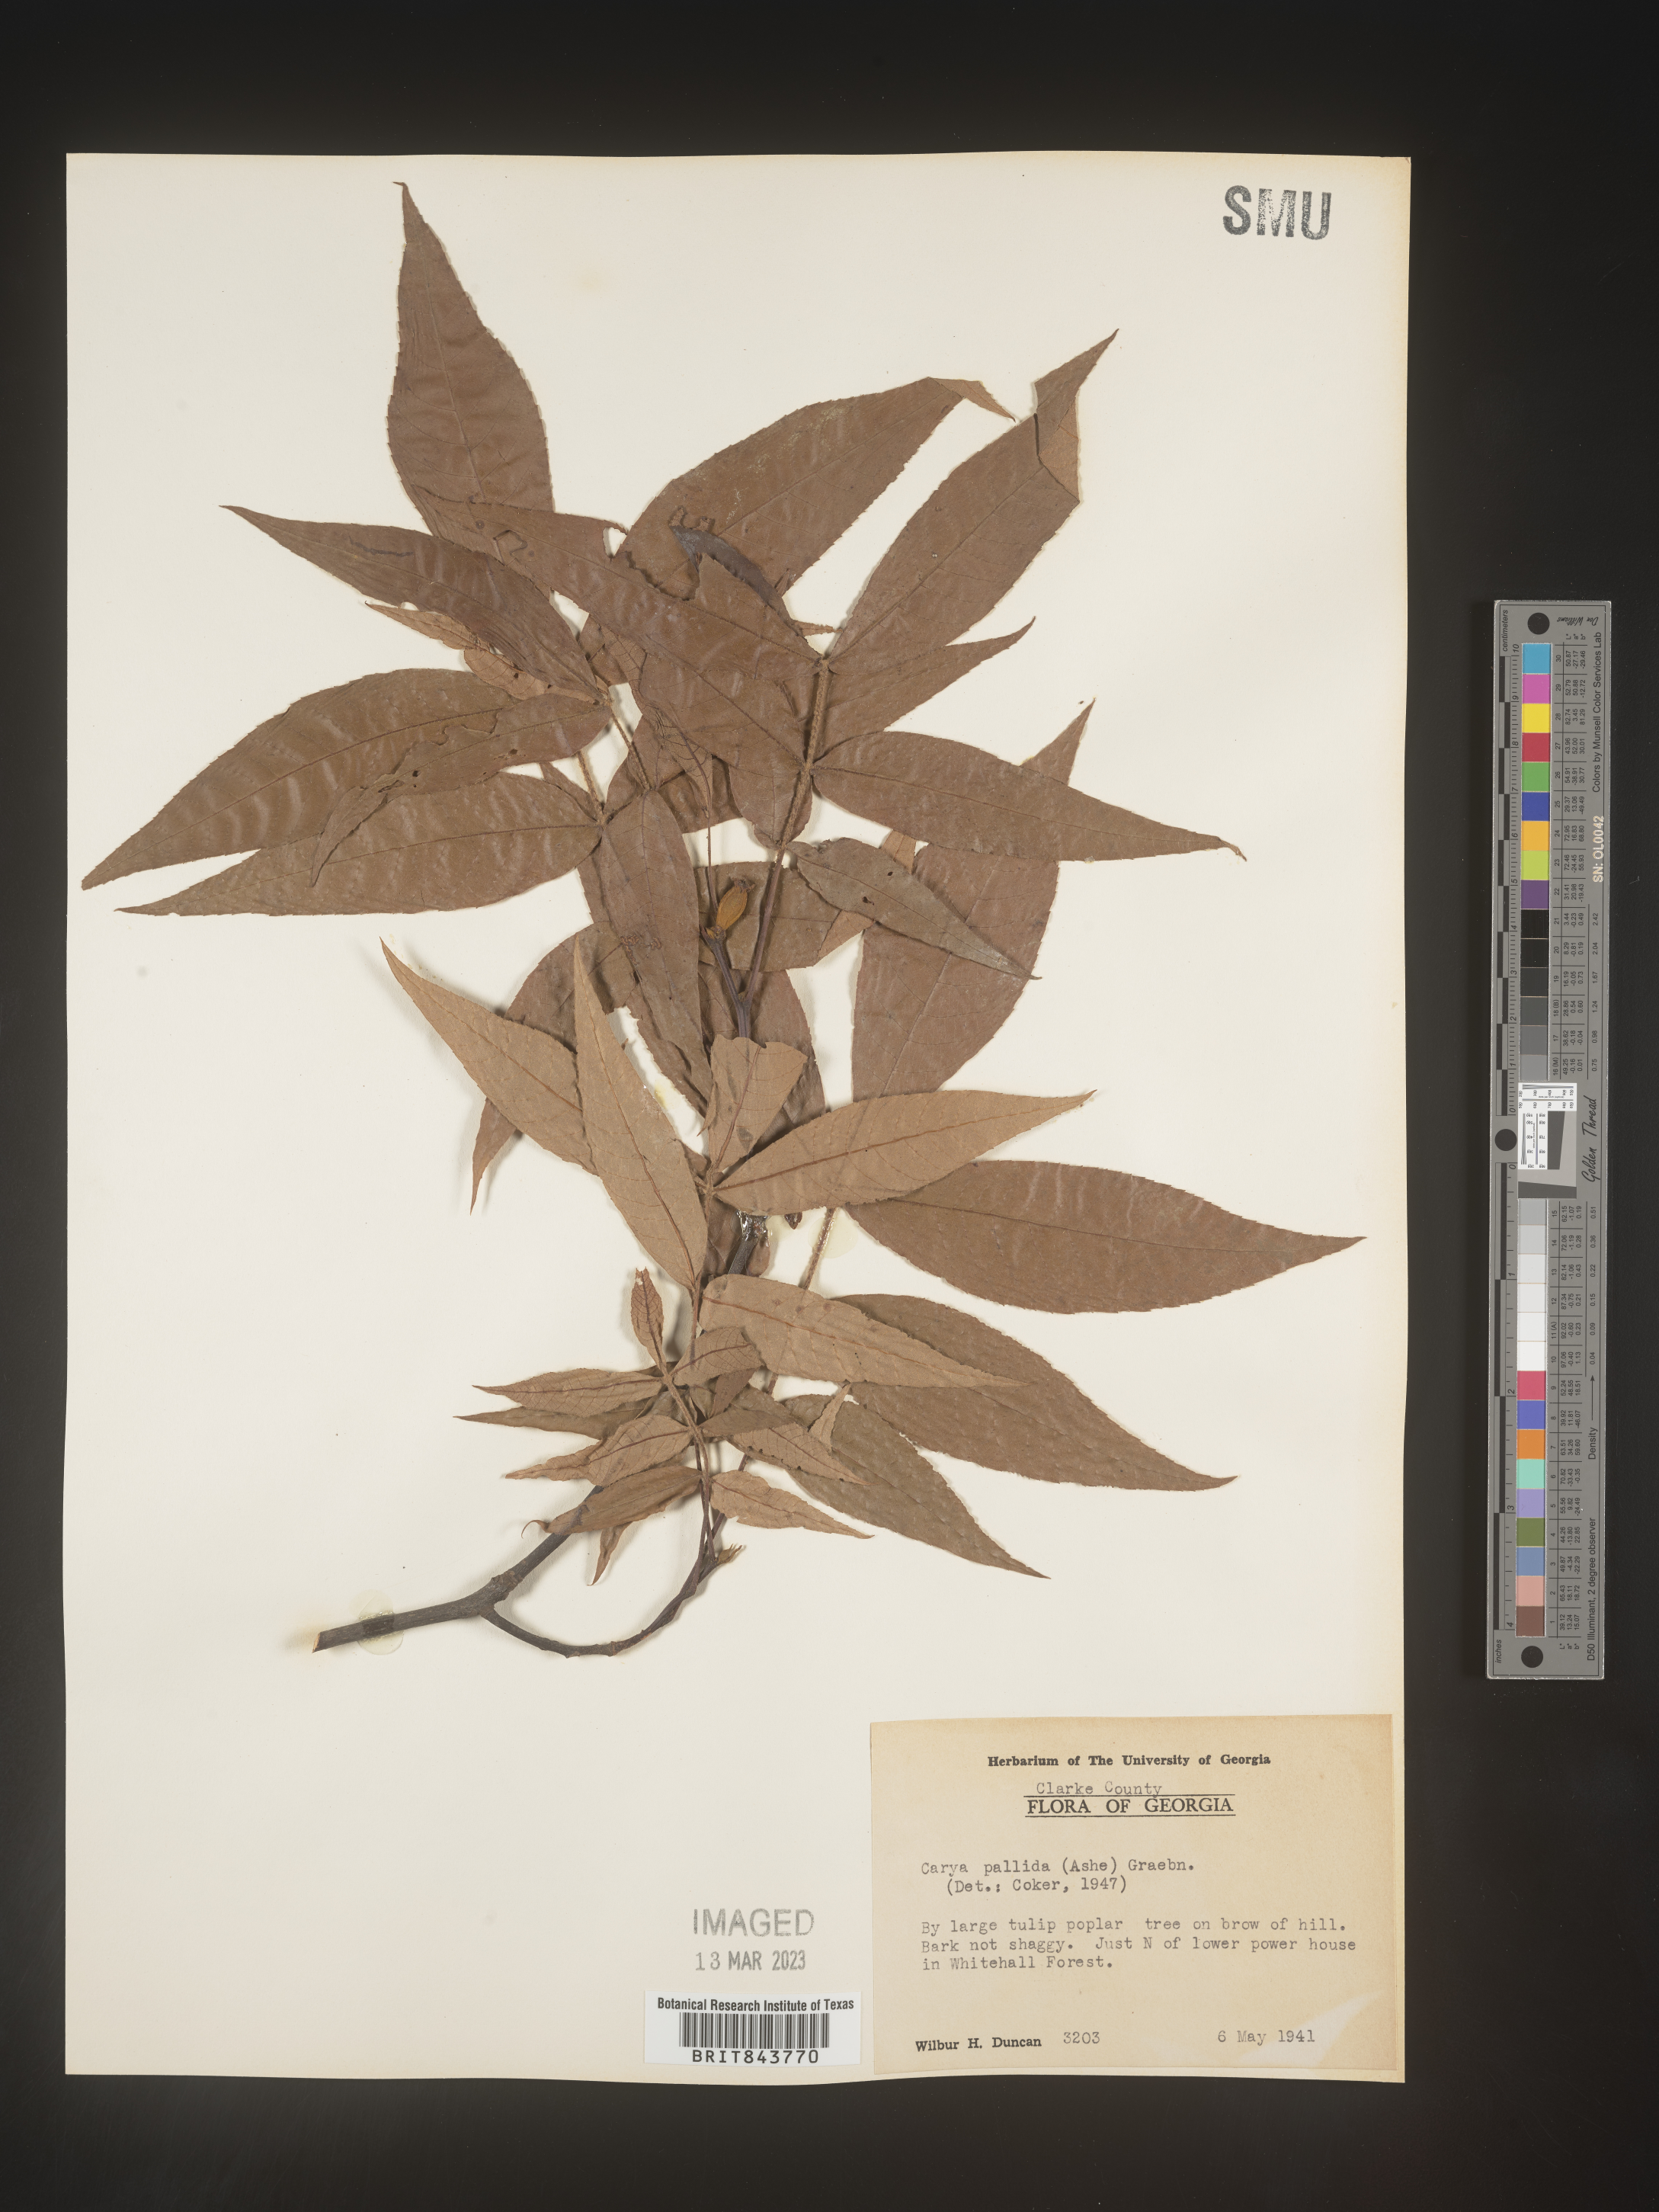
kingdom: Plantae
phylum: Tracheophyta
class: Magnoliopsida
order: Fagales
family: Juglandaceae
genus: Carya
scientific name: Carya pallida
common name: Sand hickory
